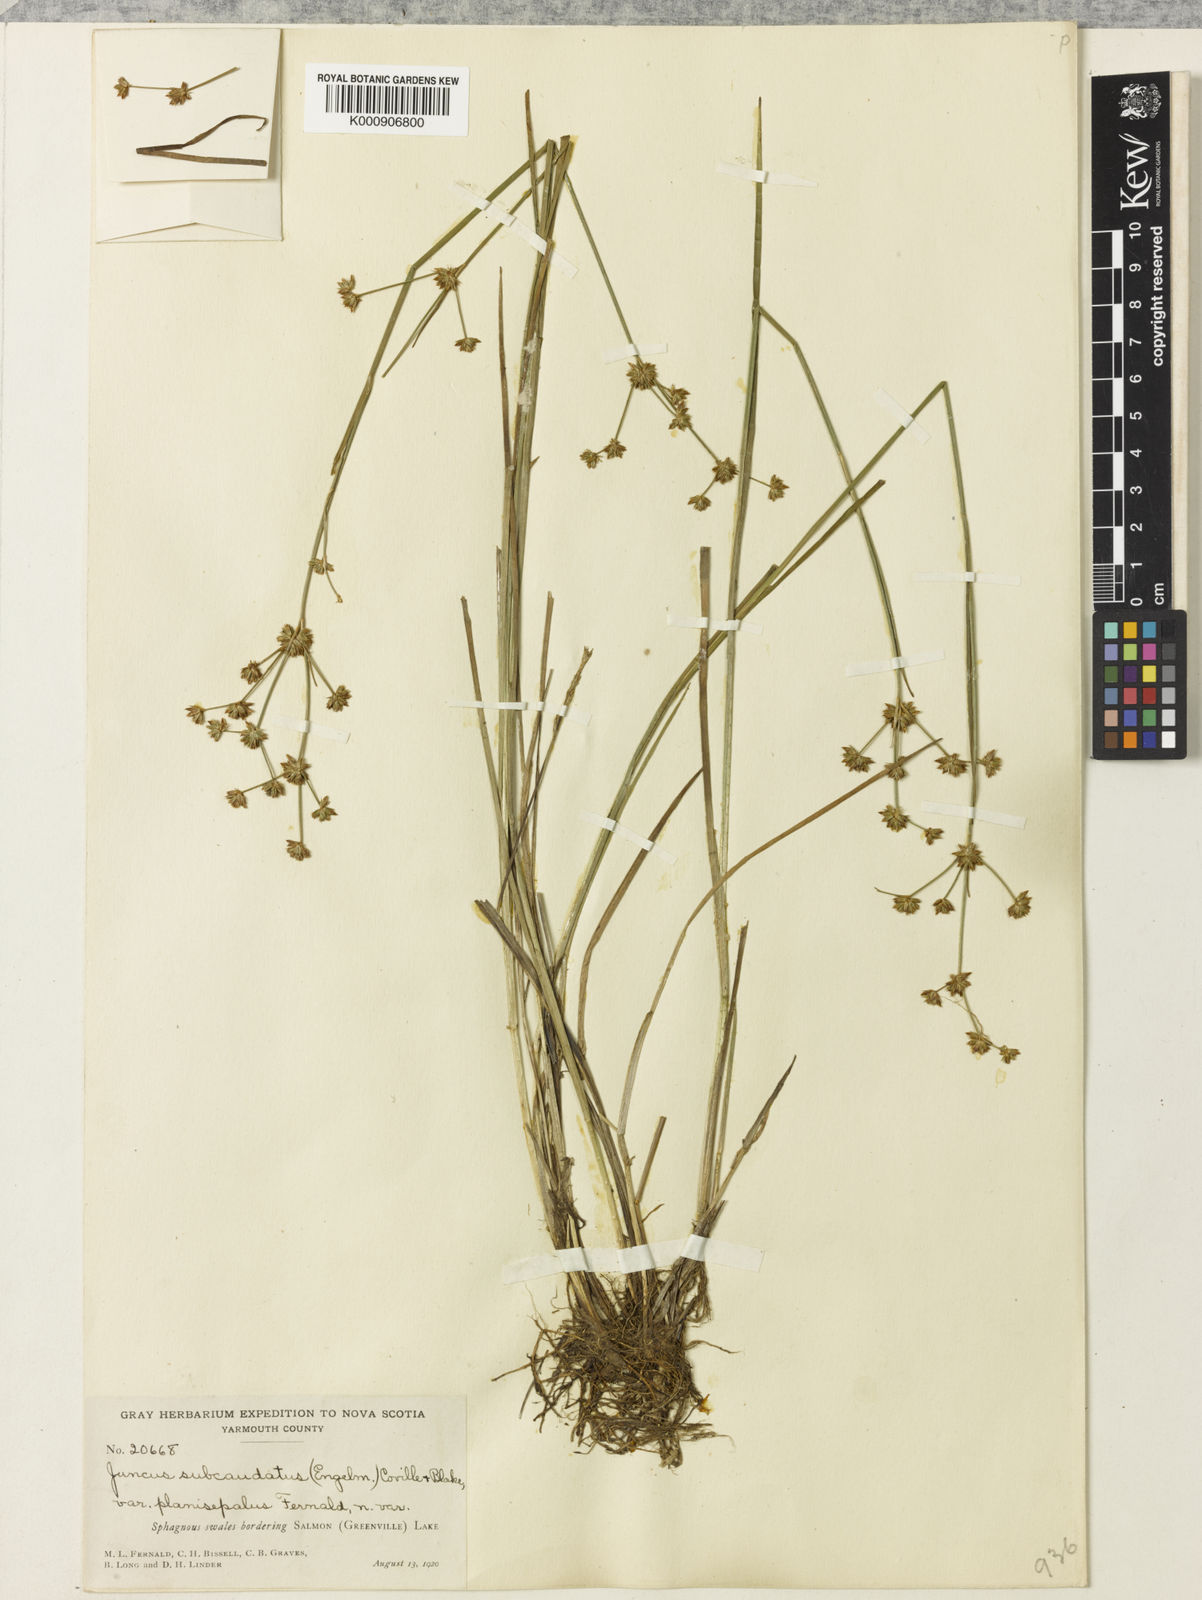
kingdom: Plantae
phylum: Tracheophyta
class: Liliopsida
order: Poales
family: Juncaceae
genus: Juncus
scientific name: Juncus
